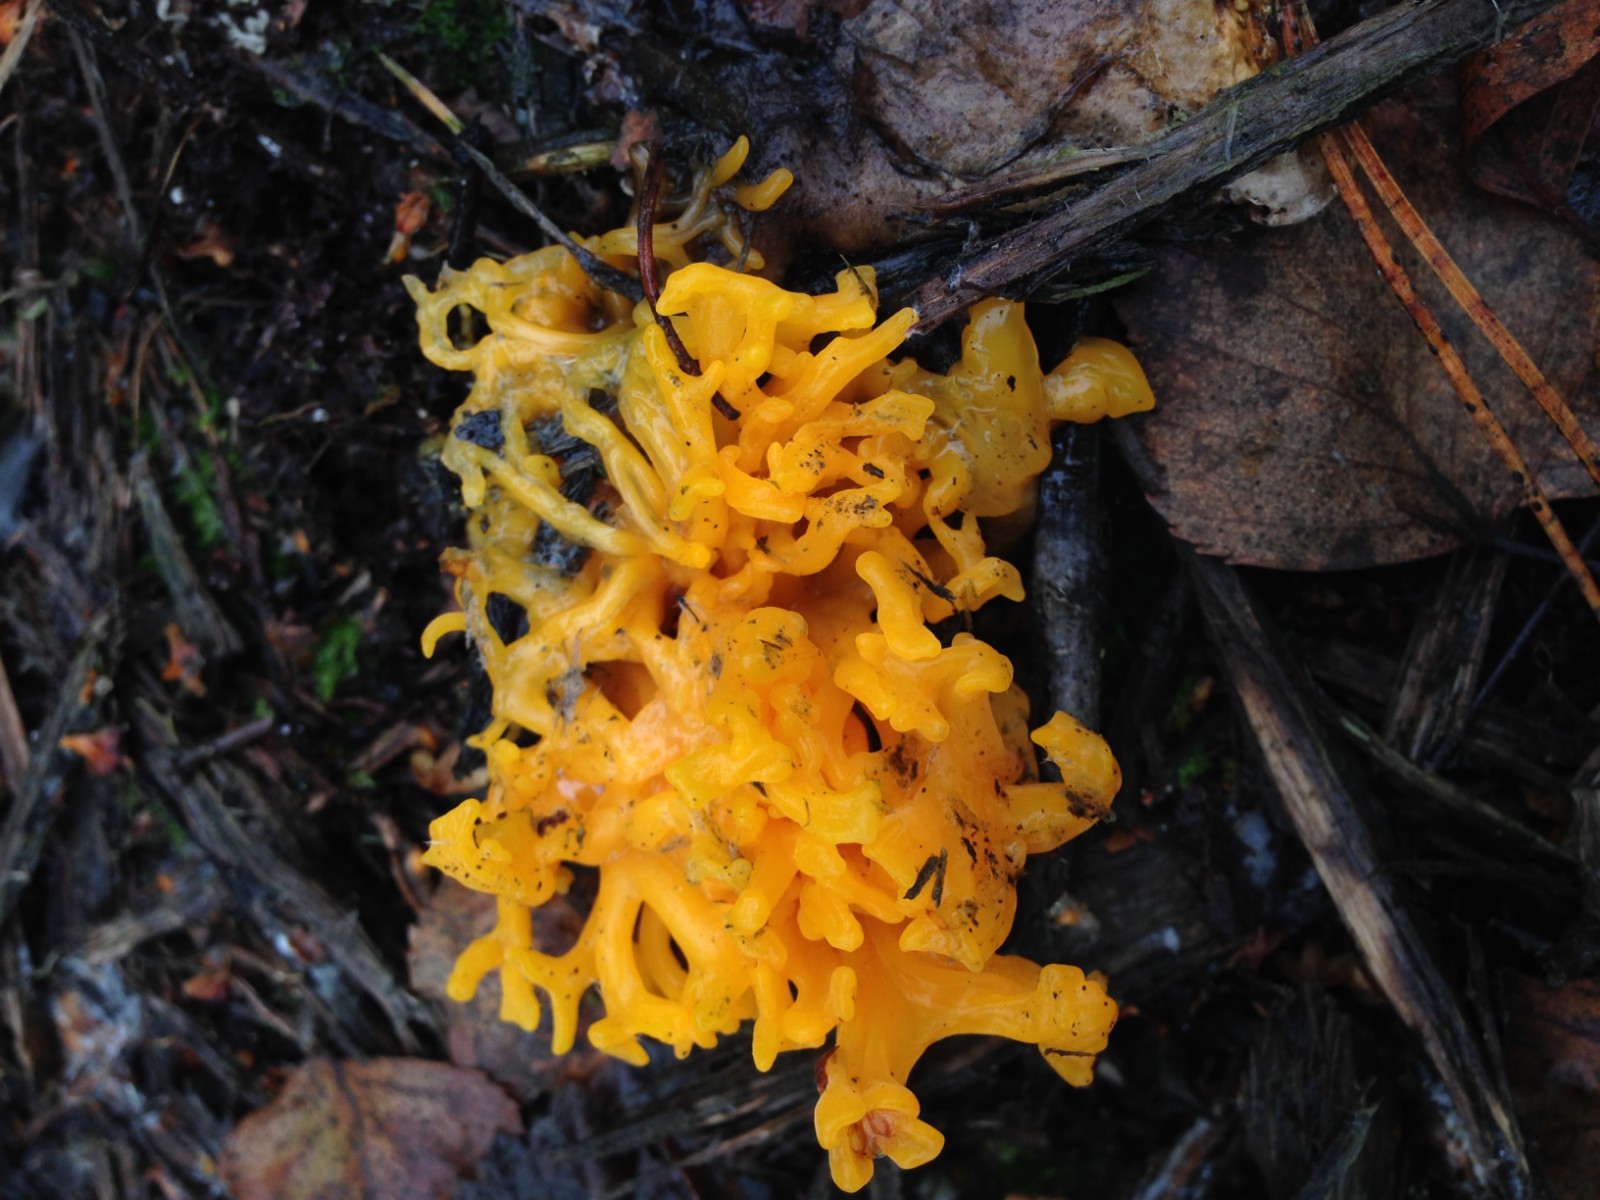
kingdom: Fungi
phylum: Basidiomycota
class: Dacrymycetes
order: Dacrymycetales
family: Dacrymycetaceae
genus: Calocera
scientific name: Calocera viscosa
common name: almindelig guldgaffel
